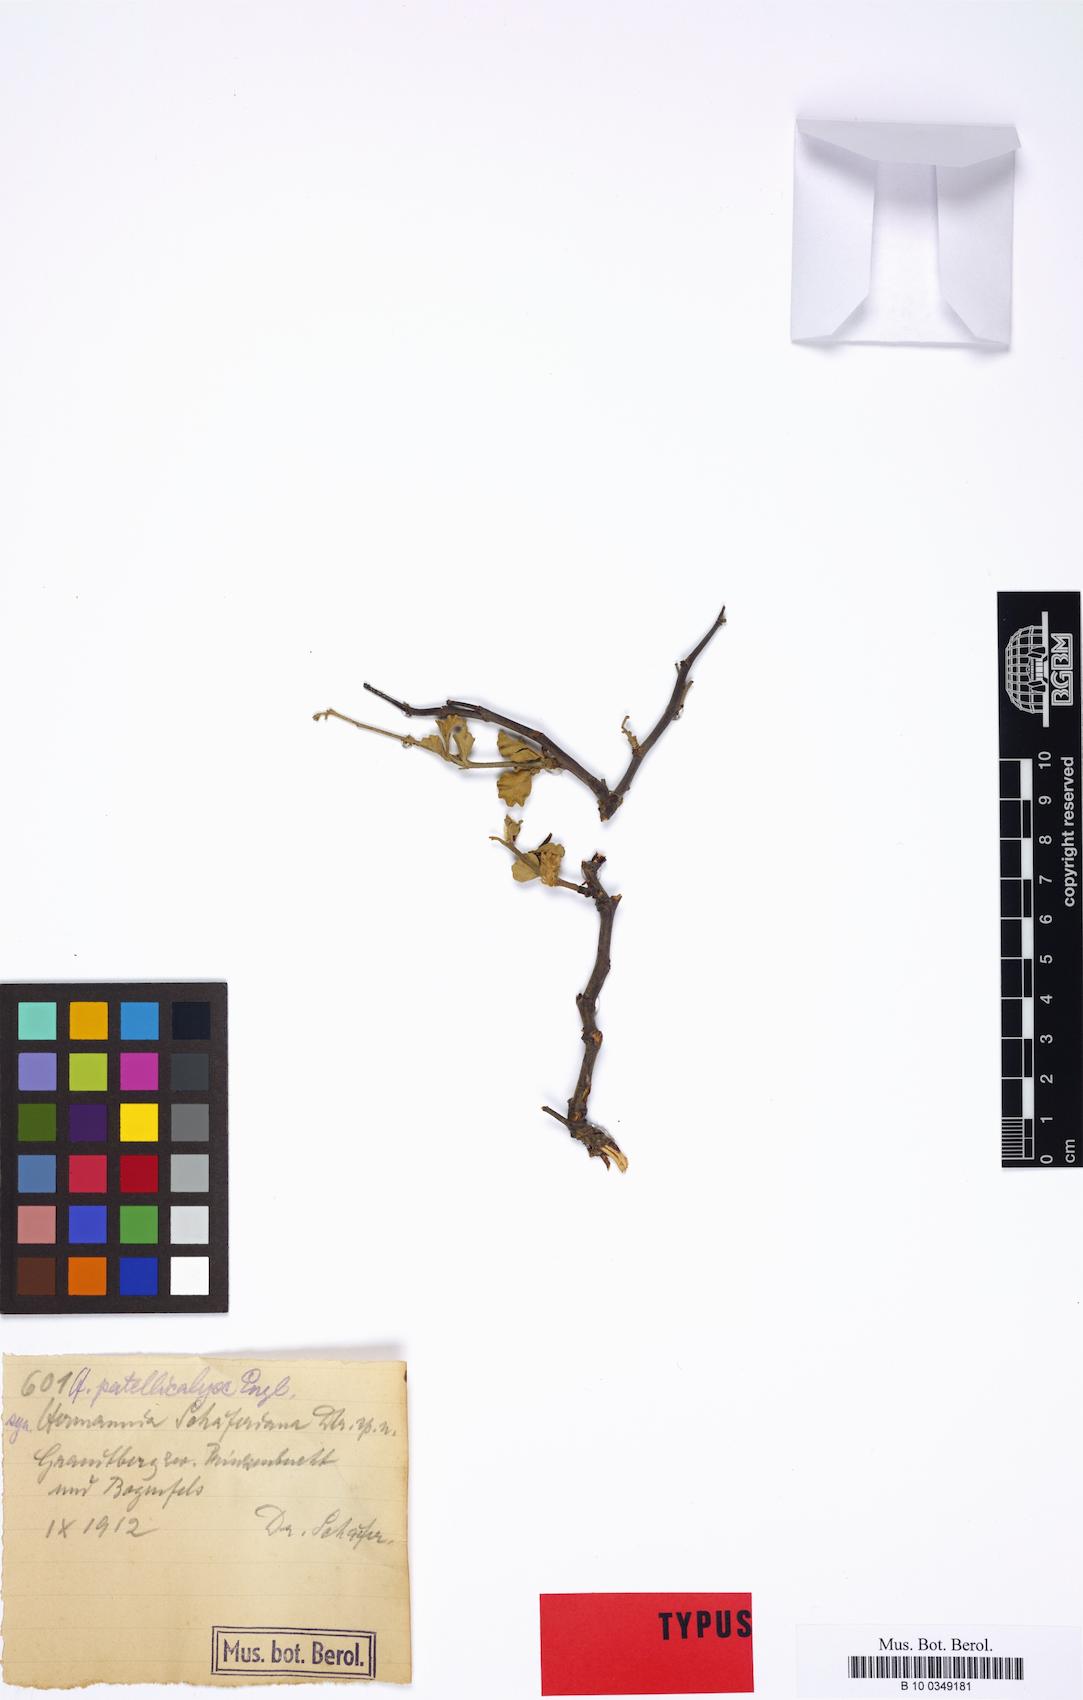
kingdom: Plantae
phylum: Tracheophyta
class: Magnoliopsida
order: Malvales
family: Malvaceae
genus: Hermannia
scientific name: Hermannia pfeilii
